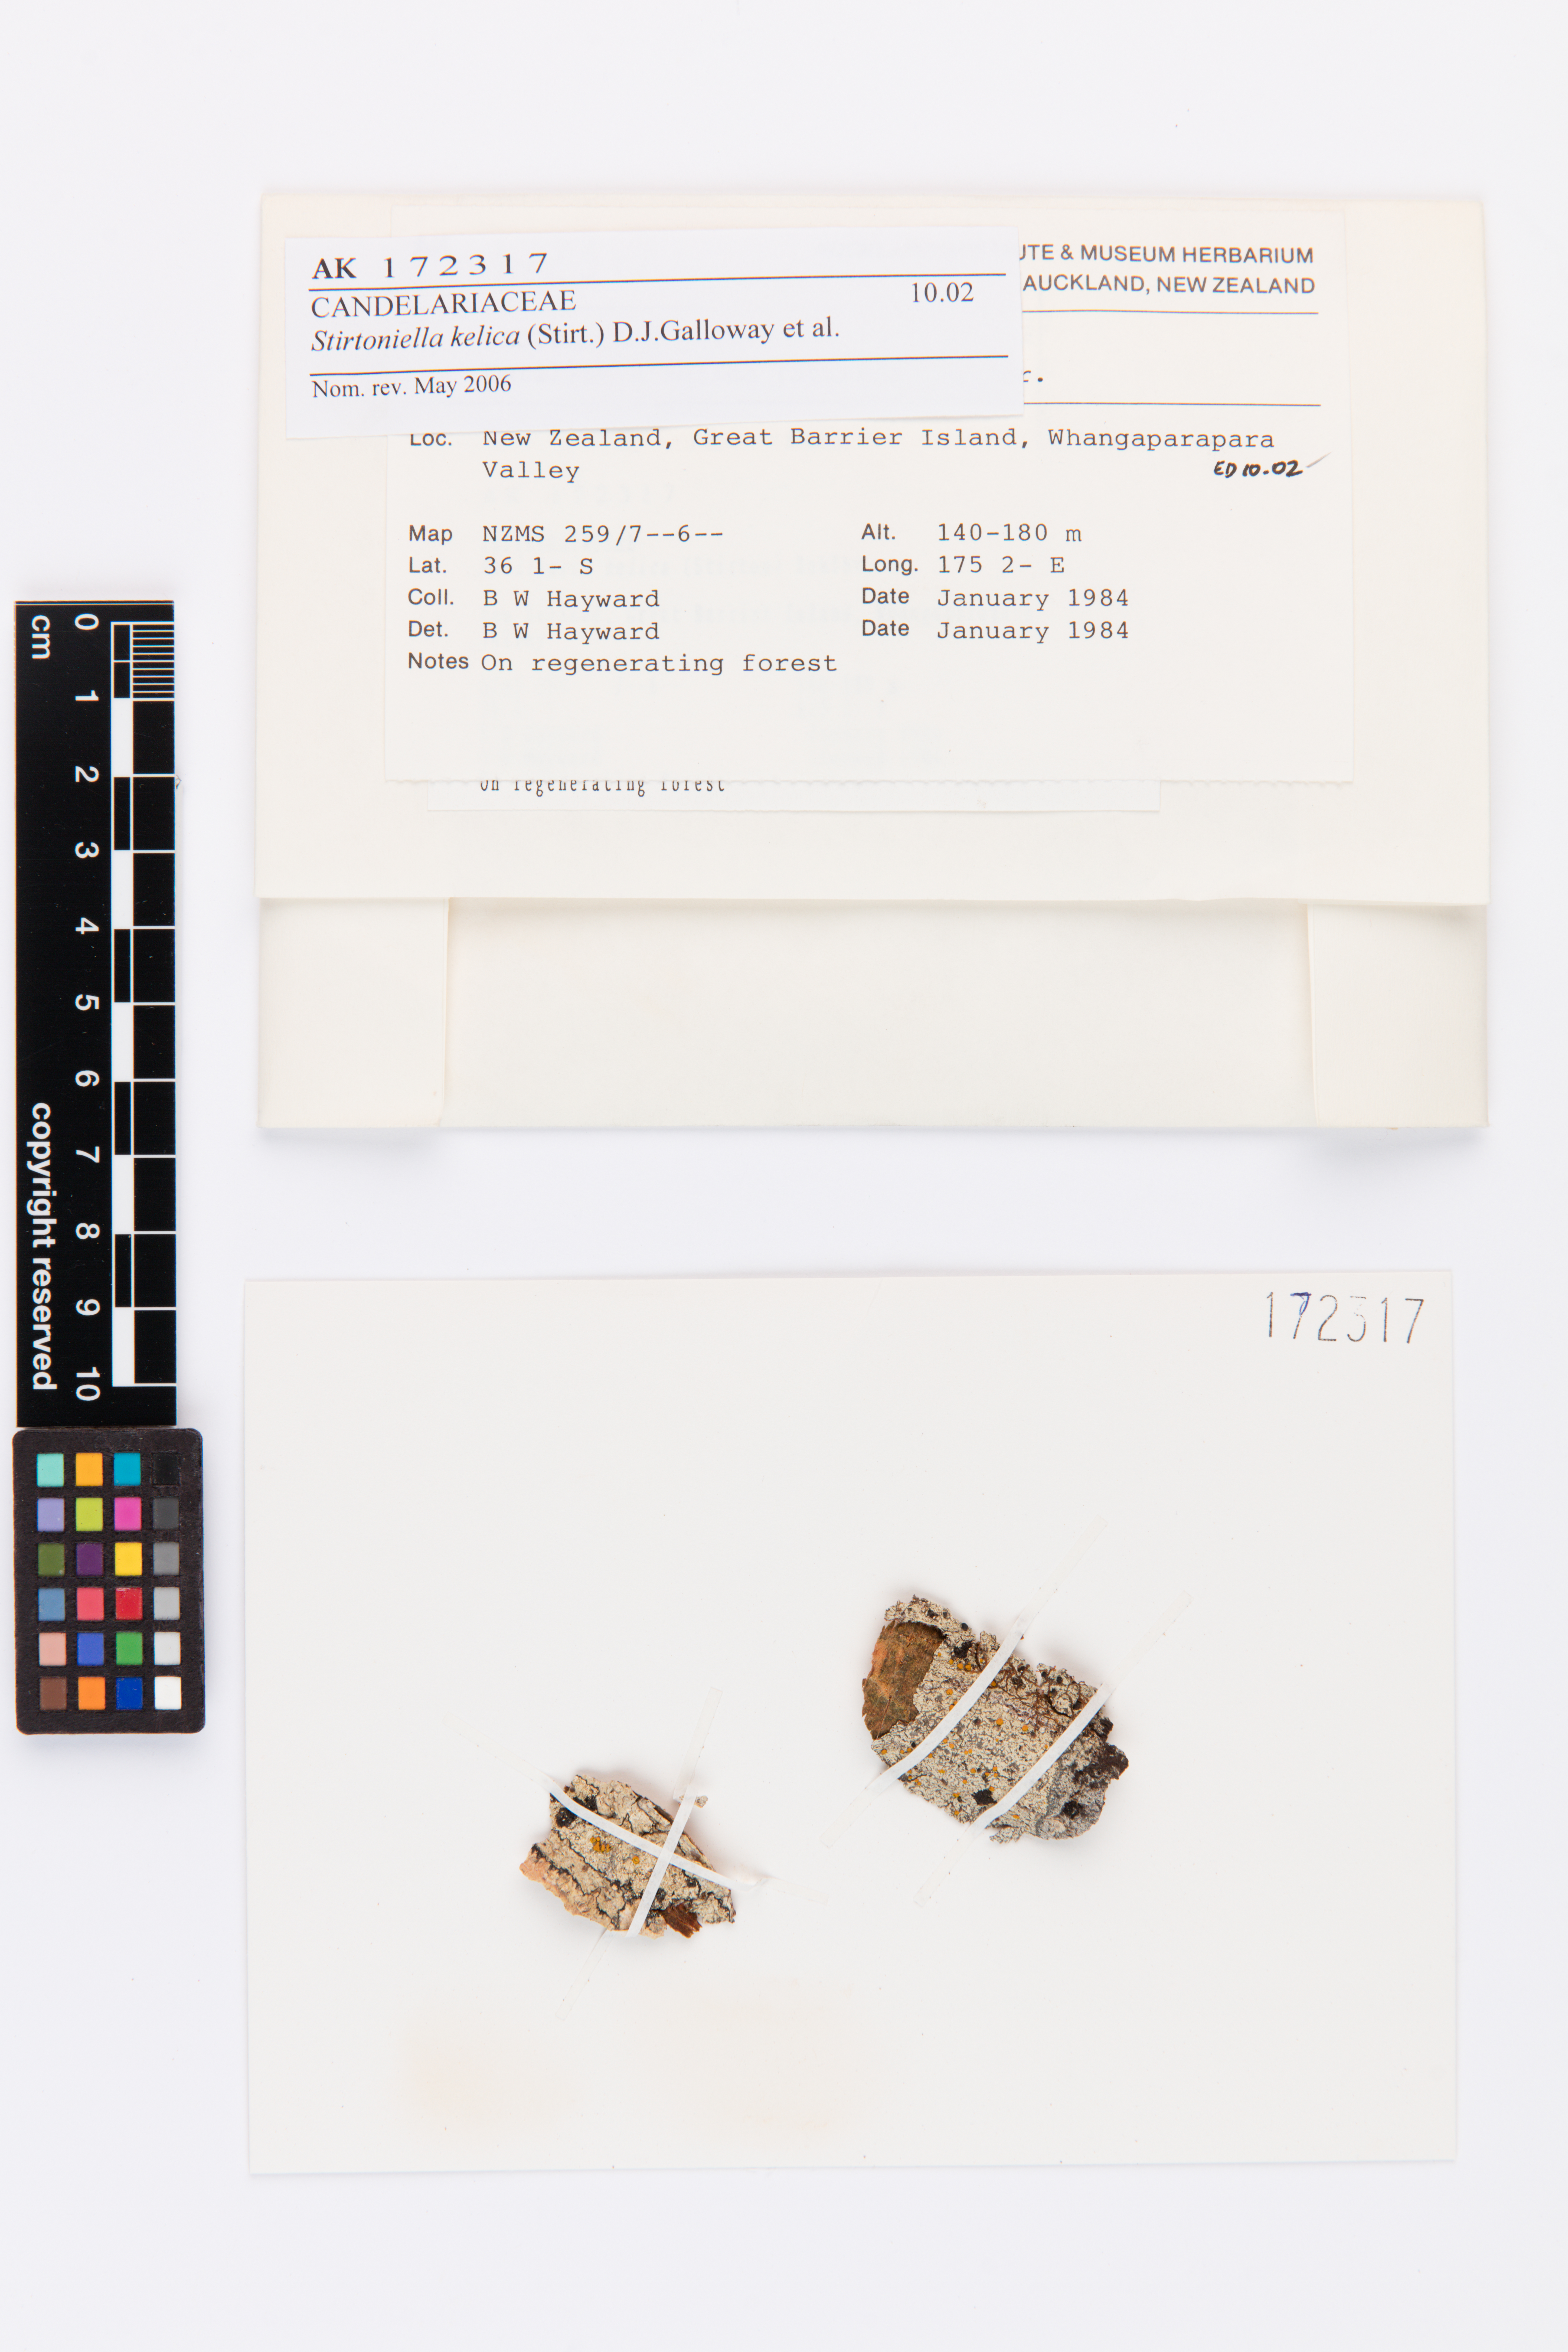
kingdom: Fungi
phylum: Ascomycota
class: Lecanoromycetes
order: Lecanorales
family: Ramalinaceae
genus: Stirtoniella
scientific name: Stirtoniella kelica
